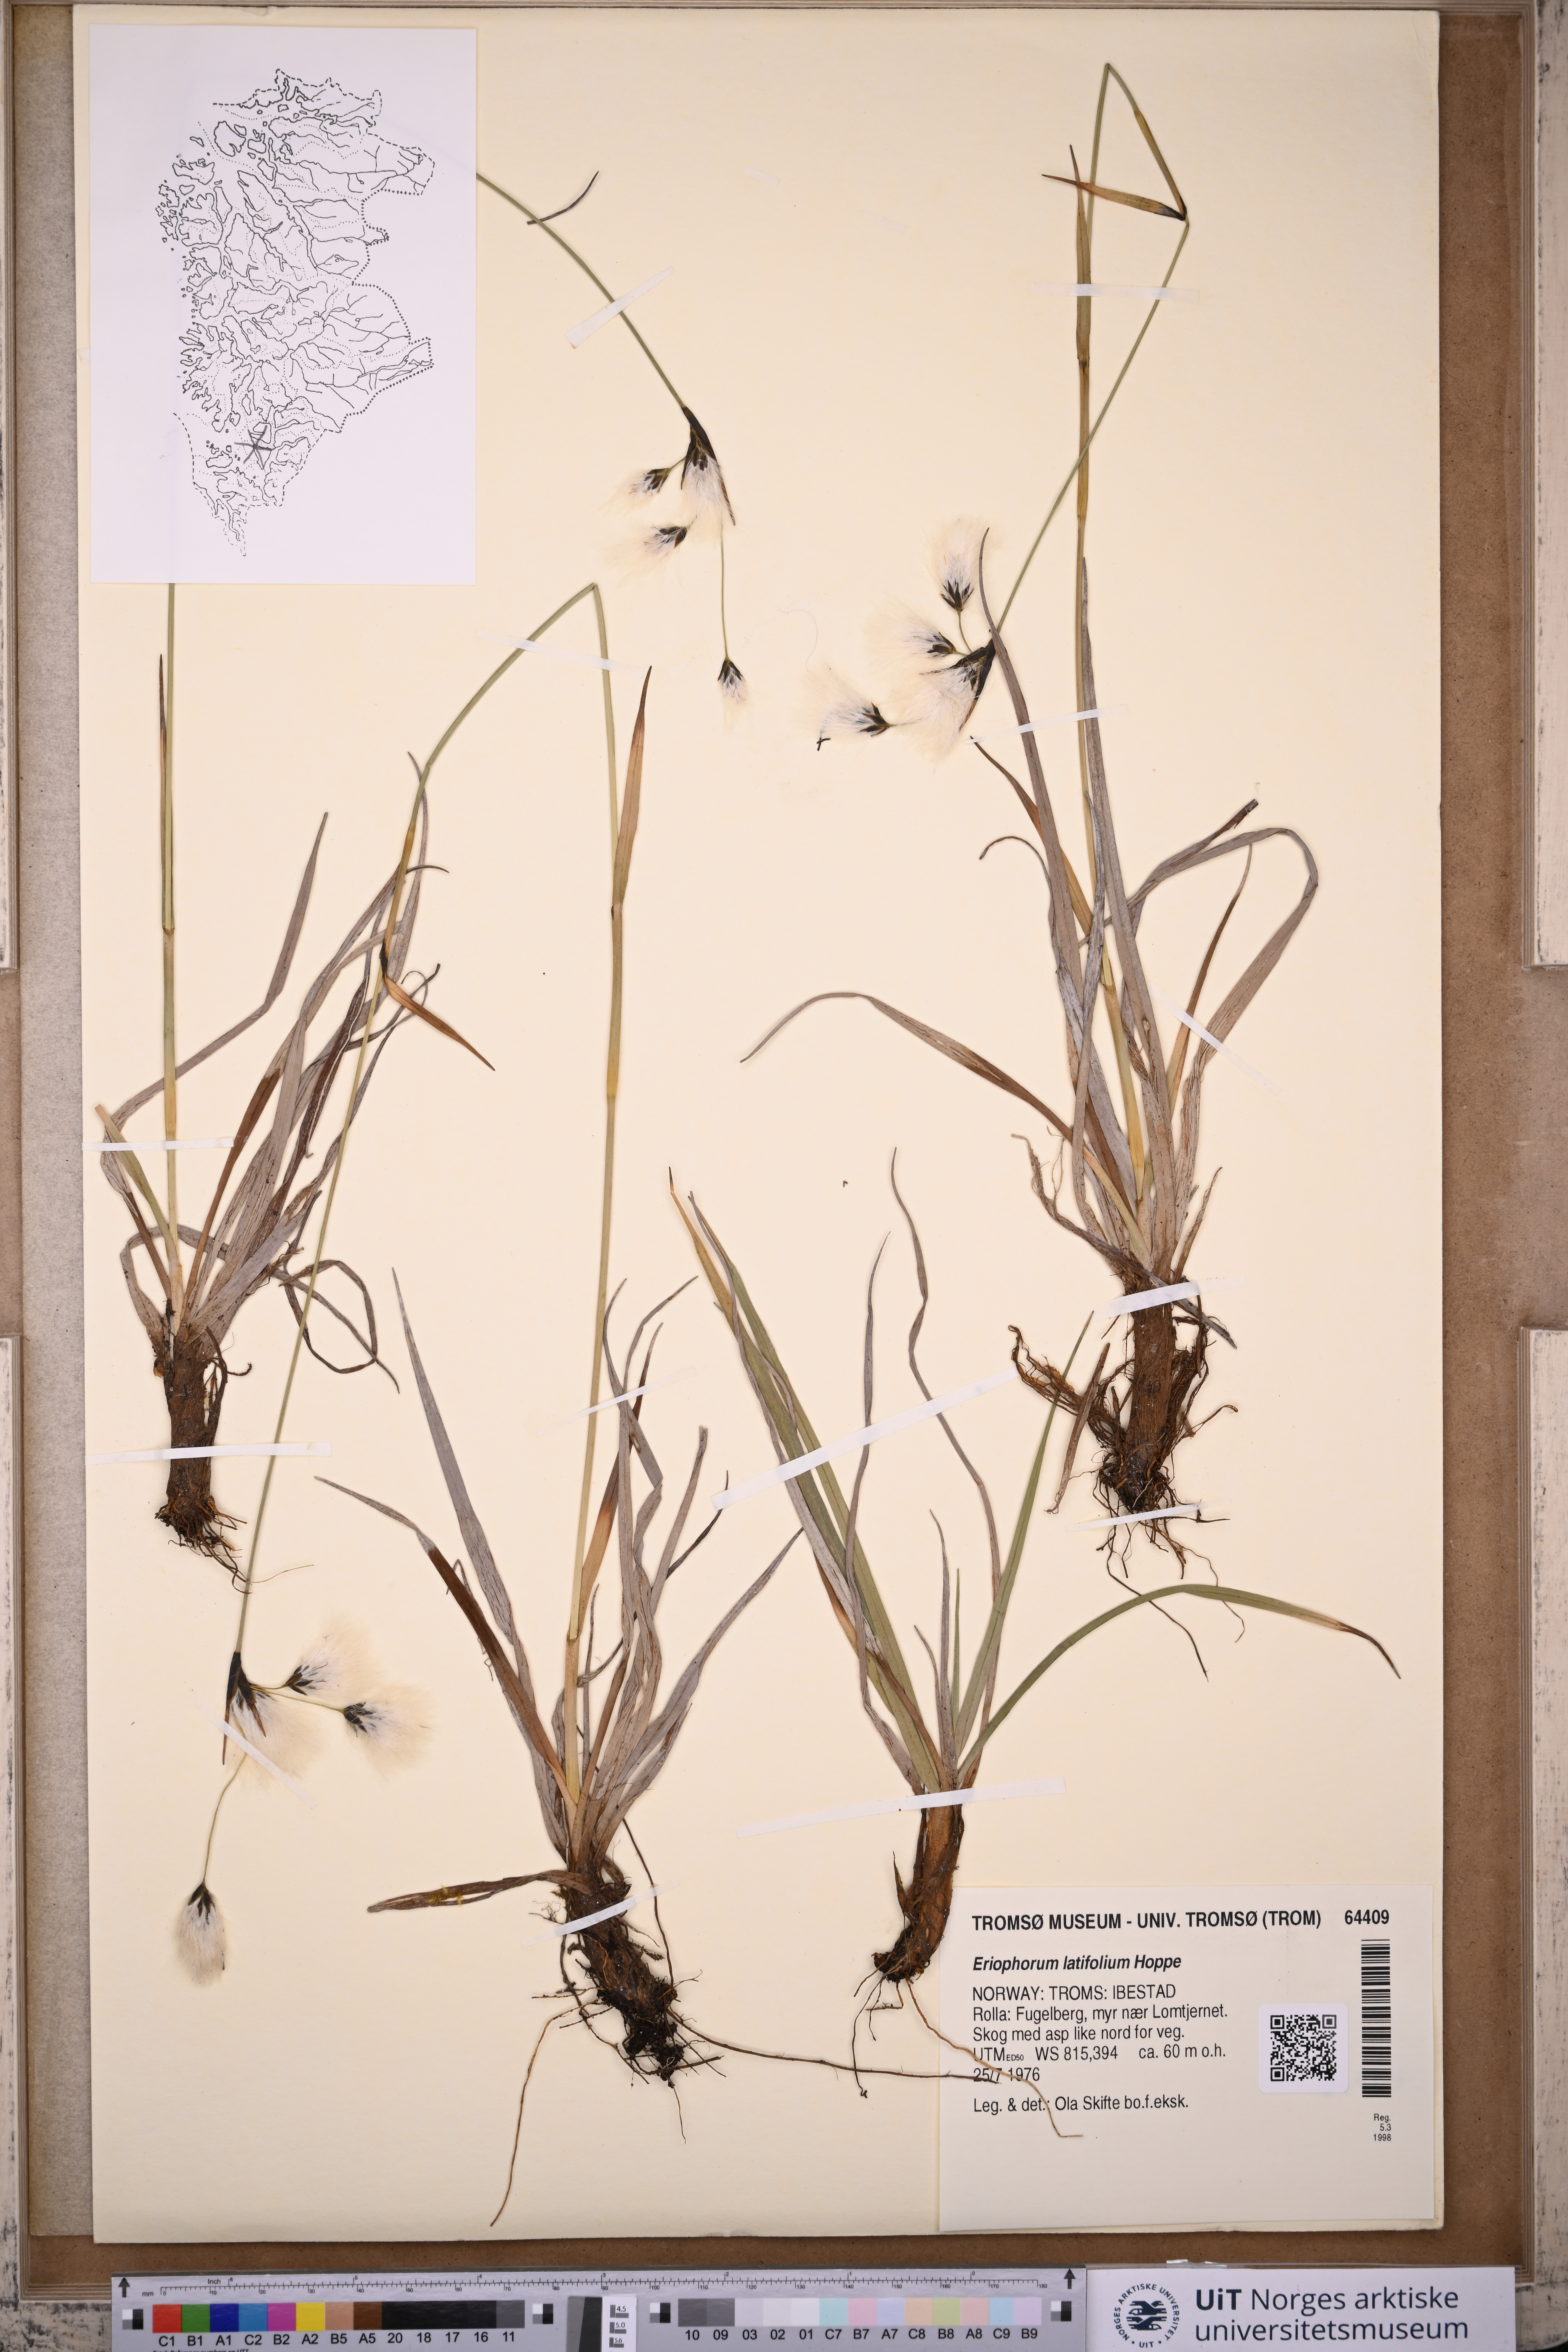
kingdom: Plantae
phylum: Tracheophyta
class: Liliopsida
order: Poales
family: Cyperaceae
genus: Eriophorum
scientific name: Eriophorum latifolium
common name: Broad-leaved cottongrass
